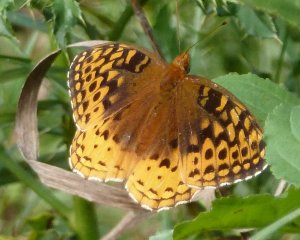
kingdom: Animalia
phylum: Arthropoda
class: Insecta
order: Lepidoptera
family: Nymphalidae
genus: Speyeria
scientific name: Speyeria cybele
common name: Great Spangled Fritillary
